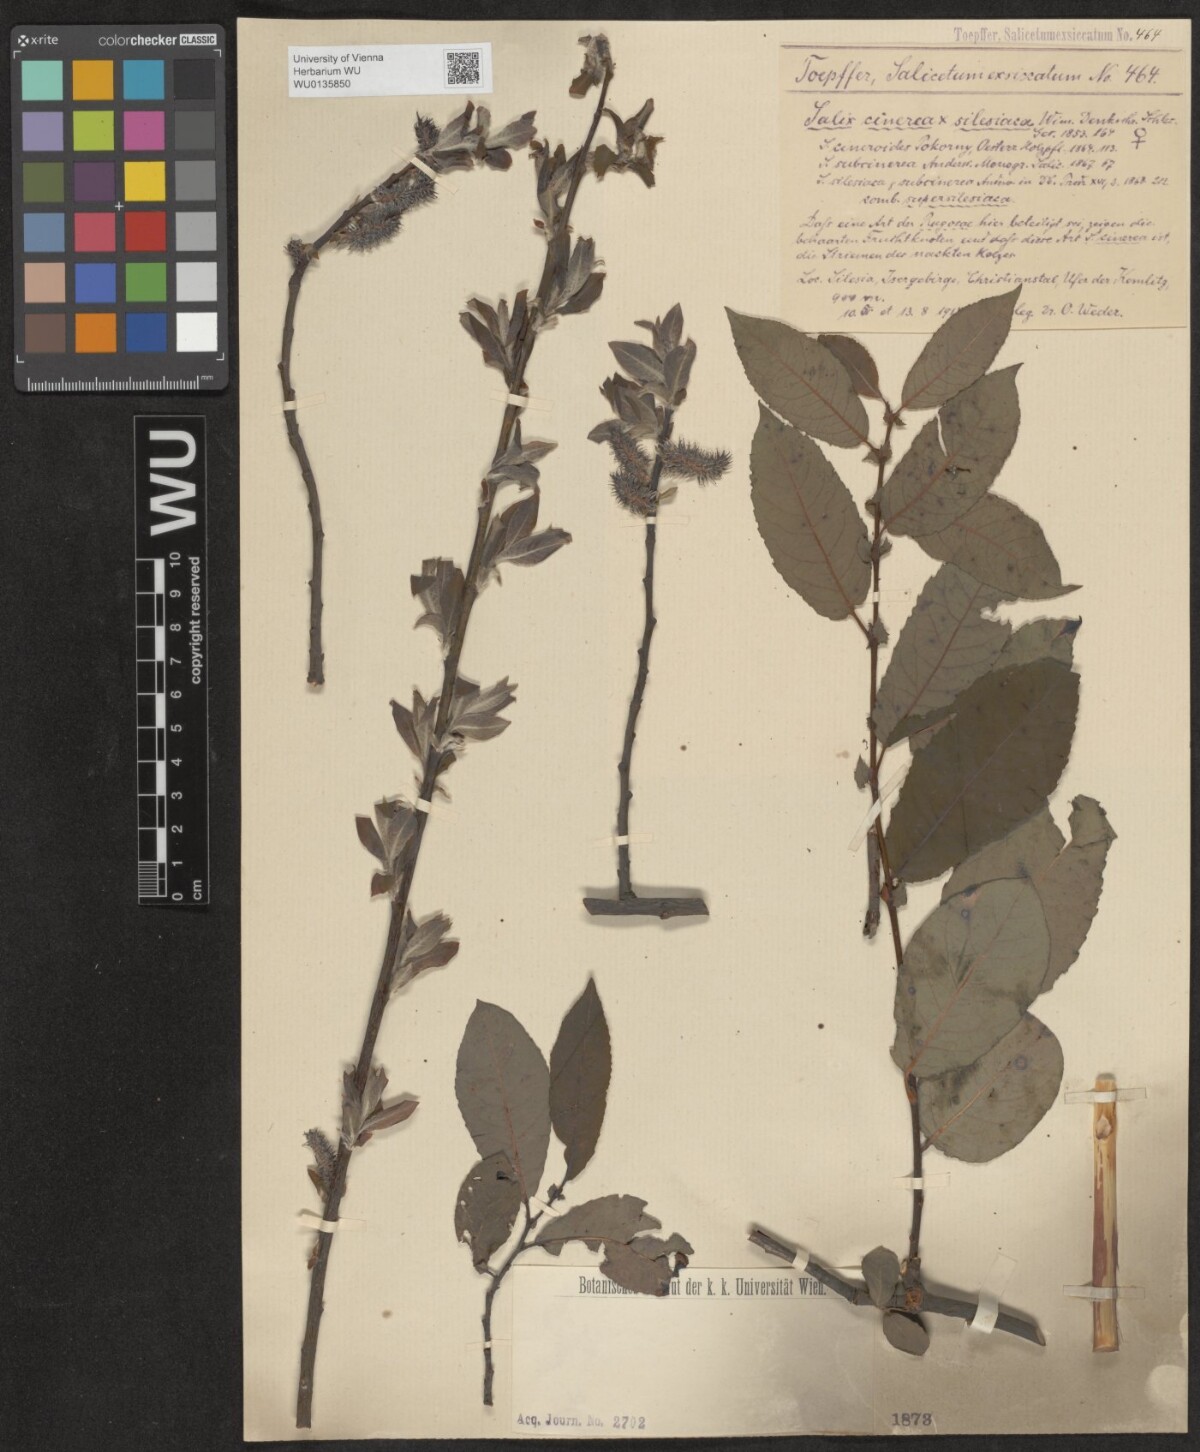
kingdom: Plantae
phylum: Tracheophyta
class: Magnoliopsida
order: Malpighiales
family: Salicaceae
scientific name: Salicaceae
